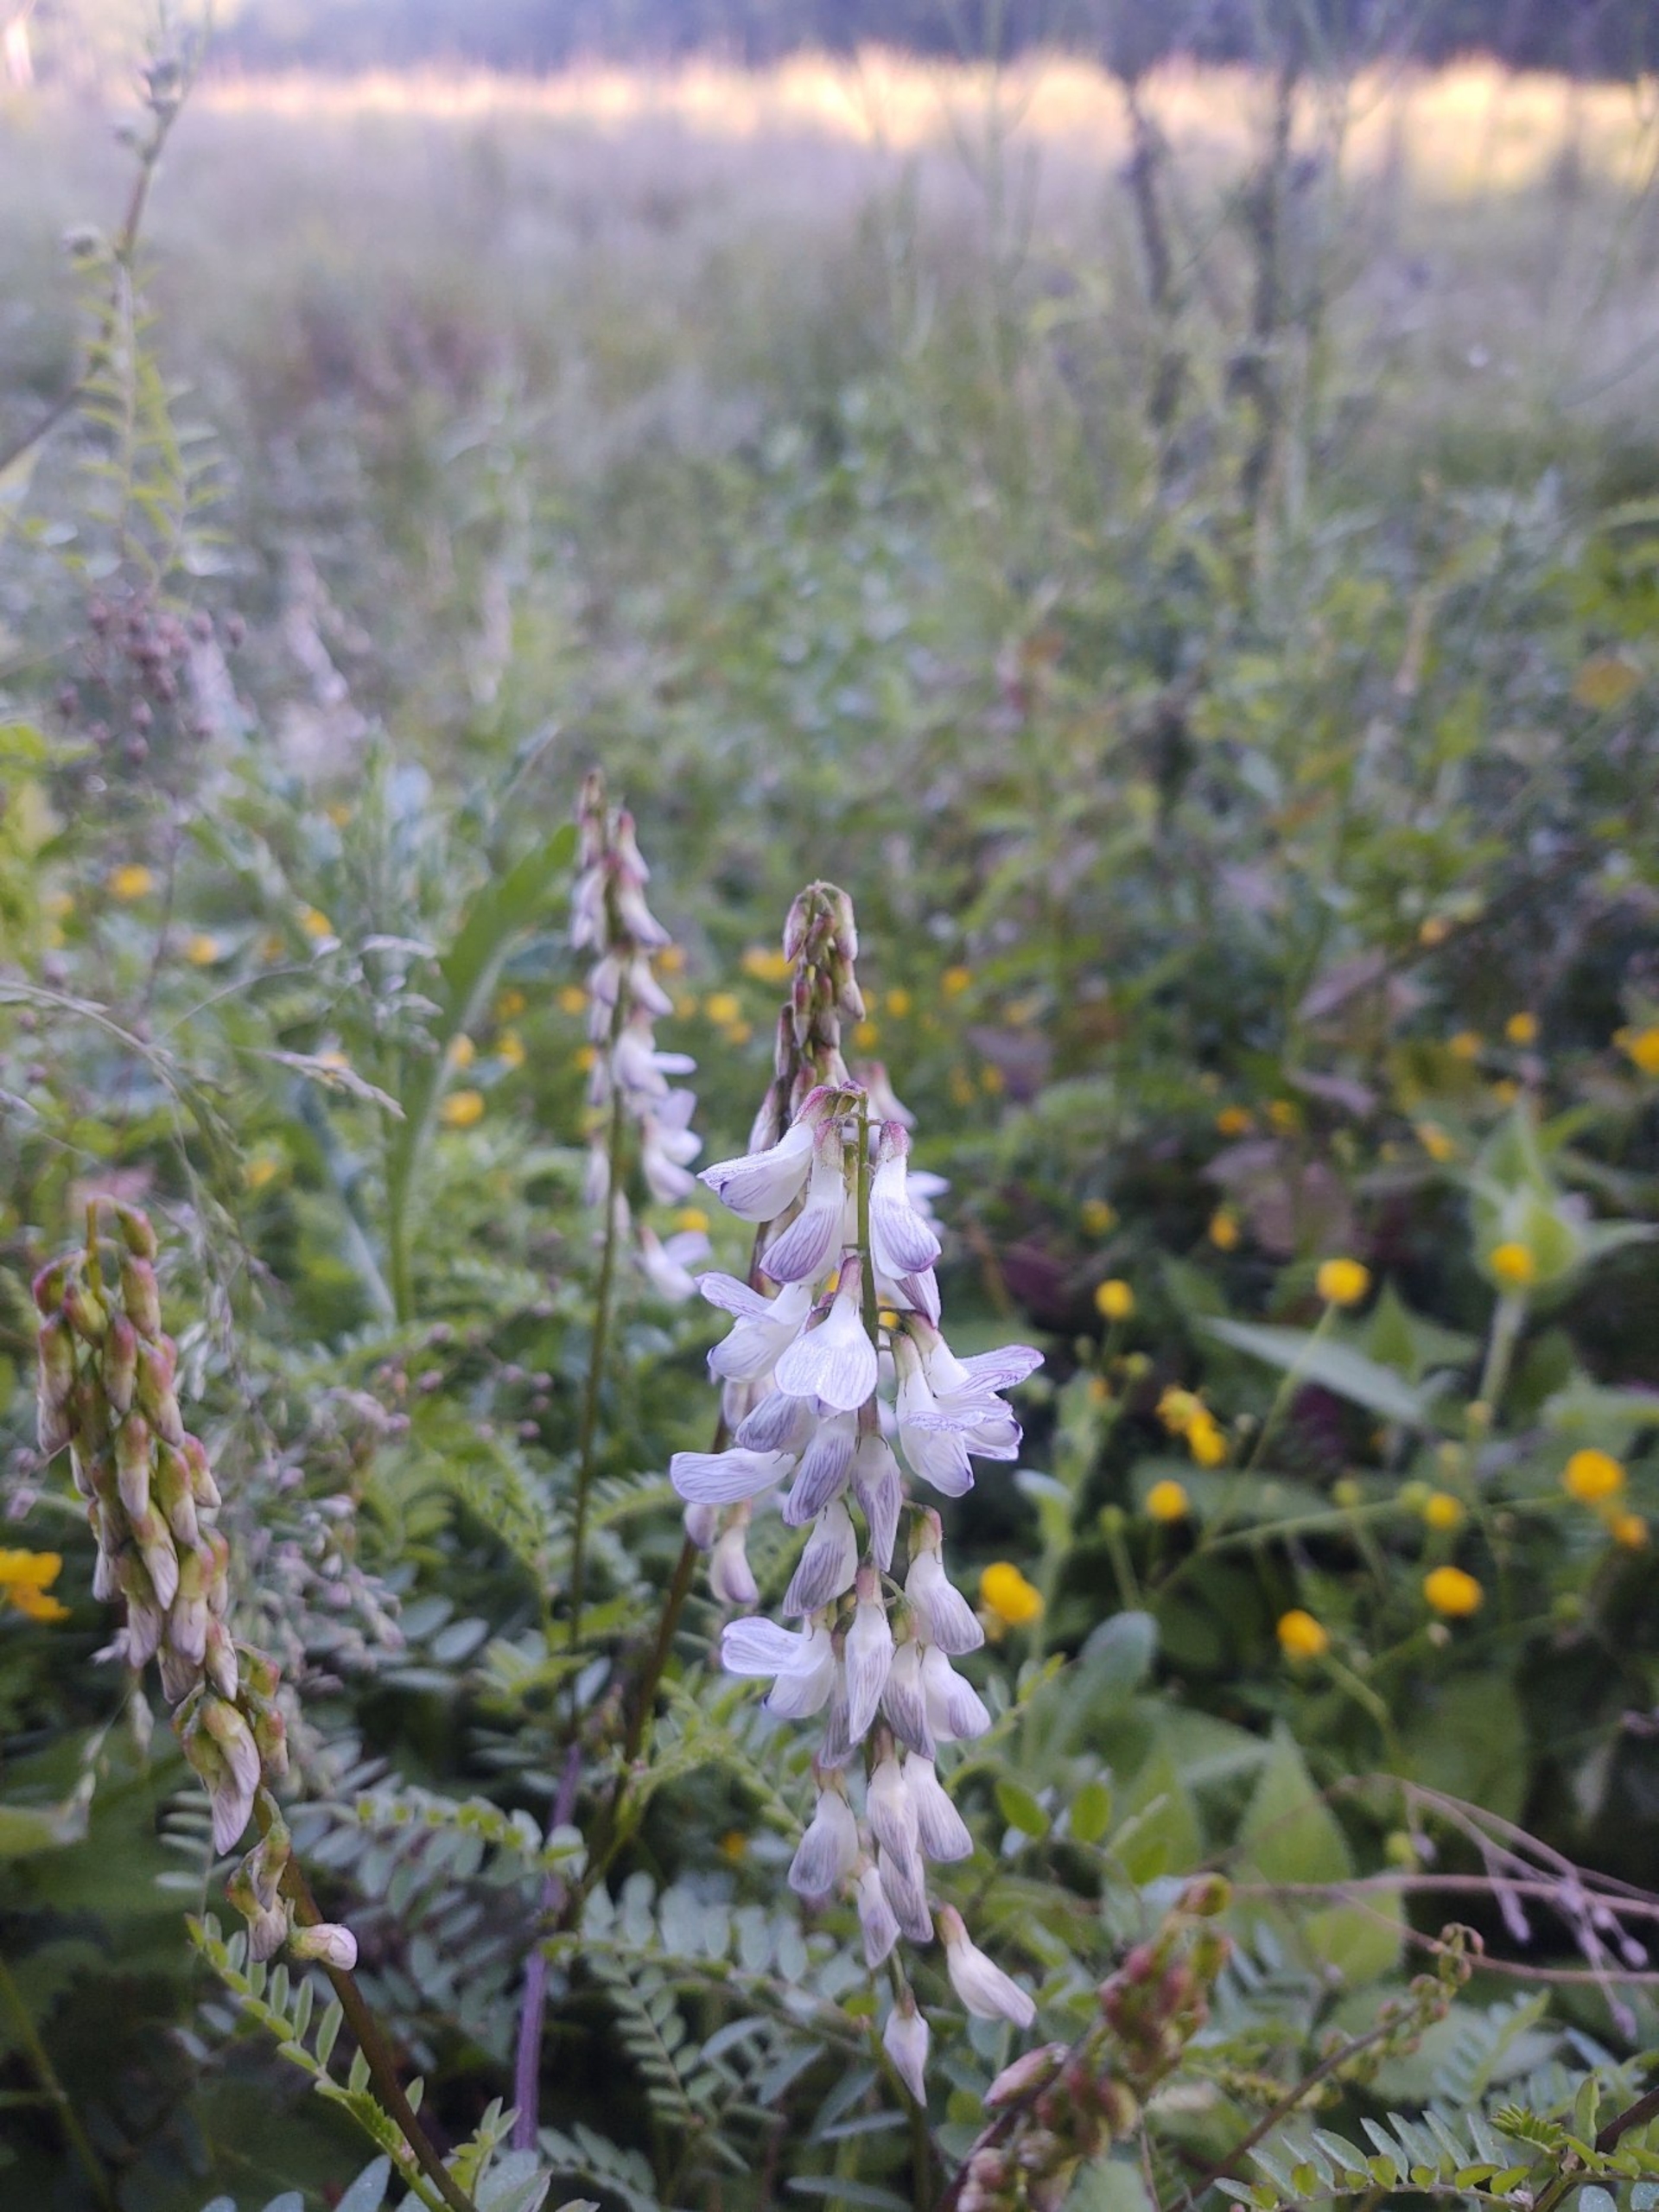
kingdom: Plantae
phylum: Tracheophyta
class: Magnoliopsida
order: Fabales
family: Fabaceae
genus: Vicia
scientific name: Vicia sylvatica
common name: Skov-vikke
